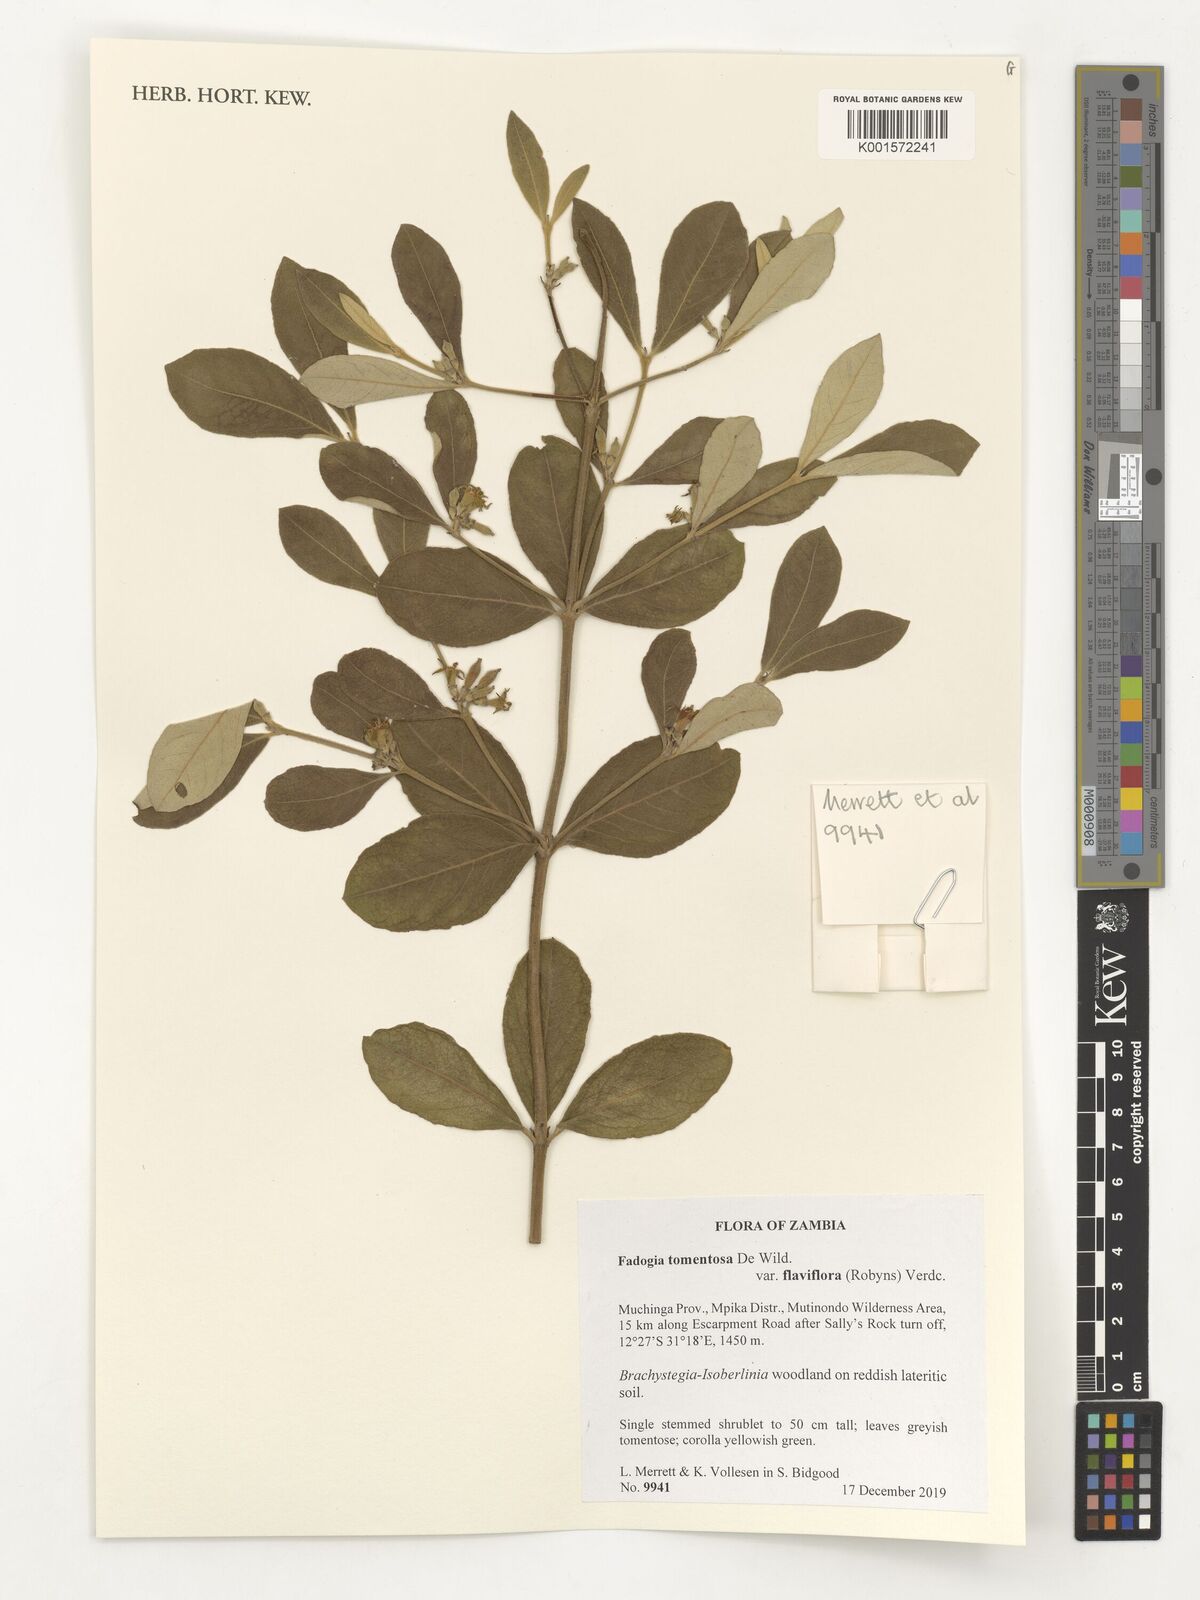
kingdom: Plantae
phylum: Tracheophyta
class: Magnoliopsida
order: Gentianales
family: Rubiaceae
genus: Fadogia
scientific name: Fadogia tomentosa
